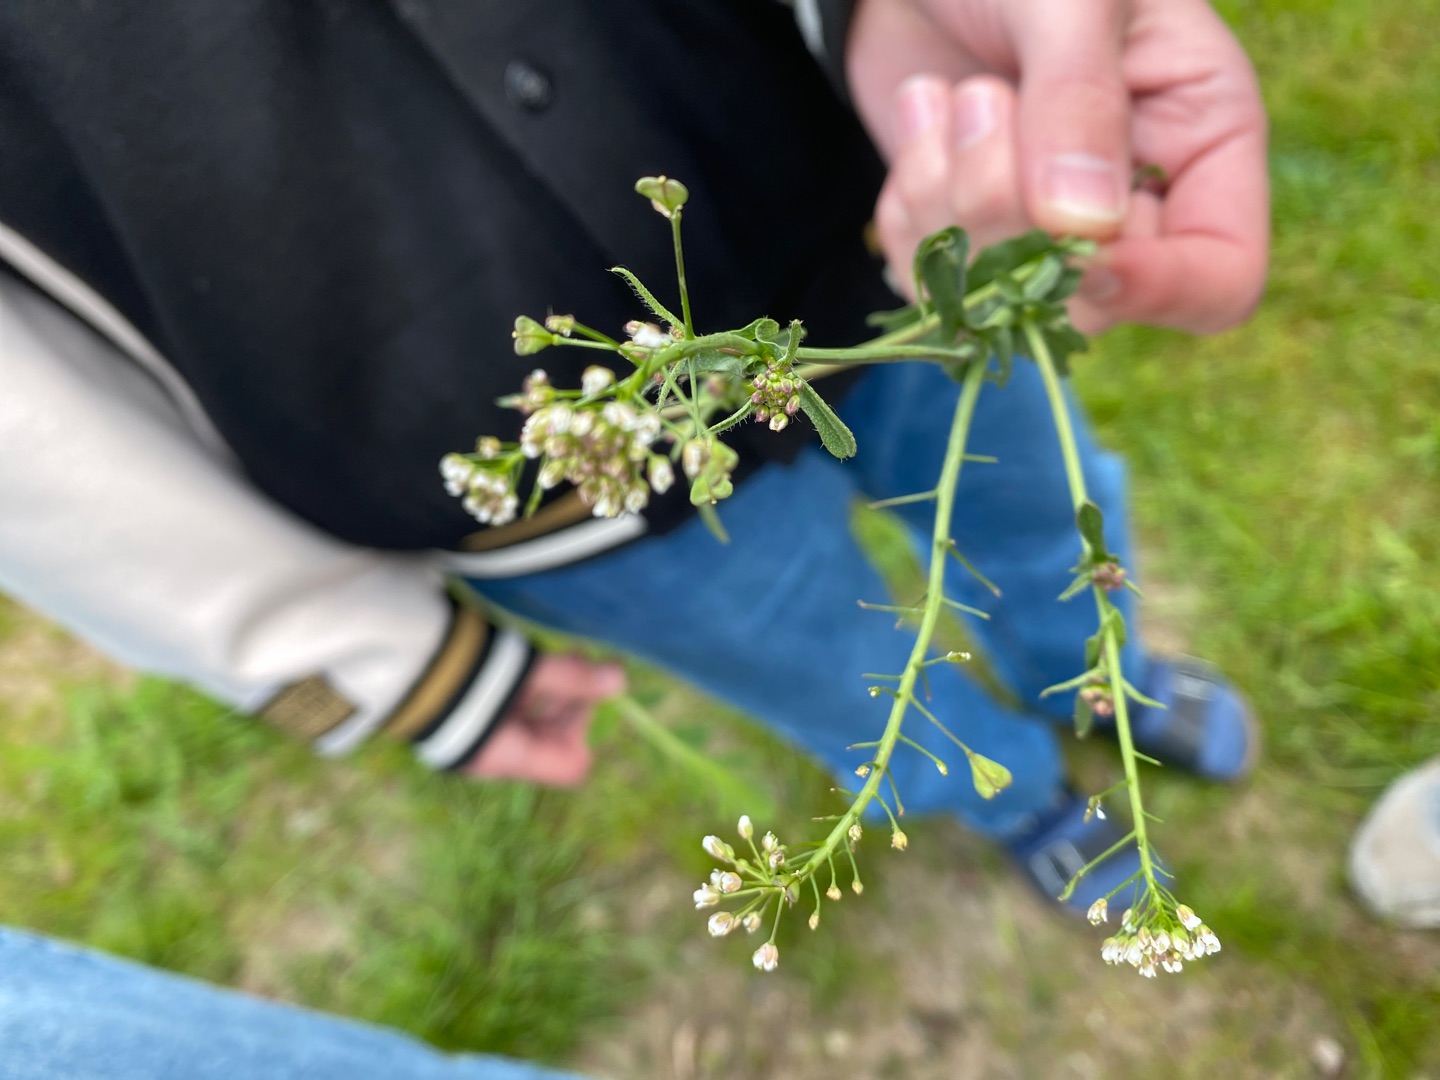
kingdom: Plantae
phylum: Tracheophyta
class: Magnoliopsida
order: Brassicales
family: Brassicaceae
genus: Capsella
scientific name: Capsella bursa-pastoris
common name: Hyrdetaske
